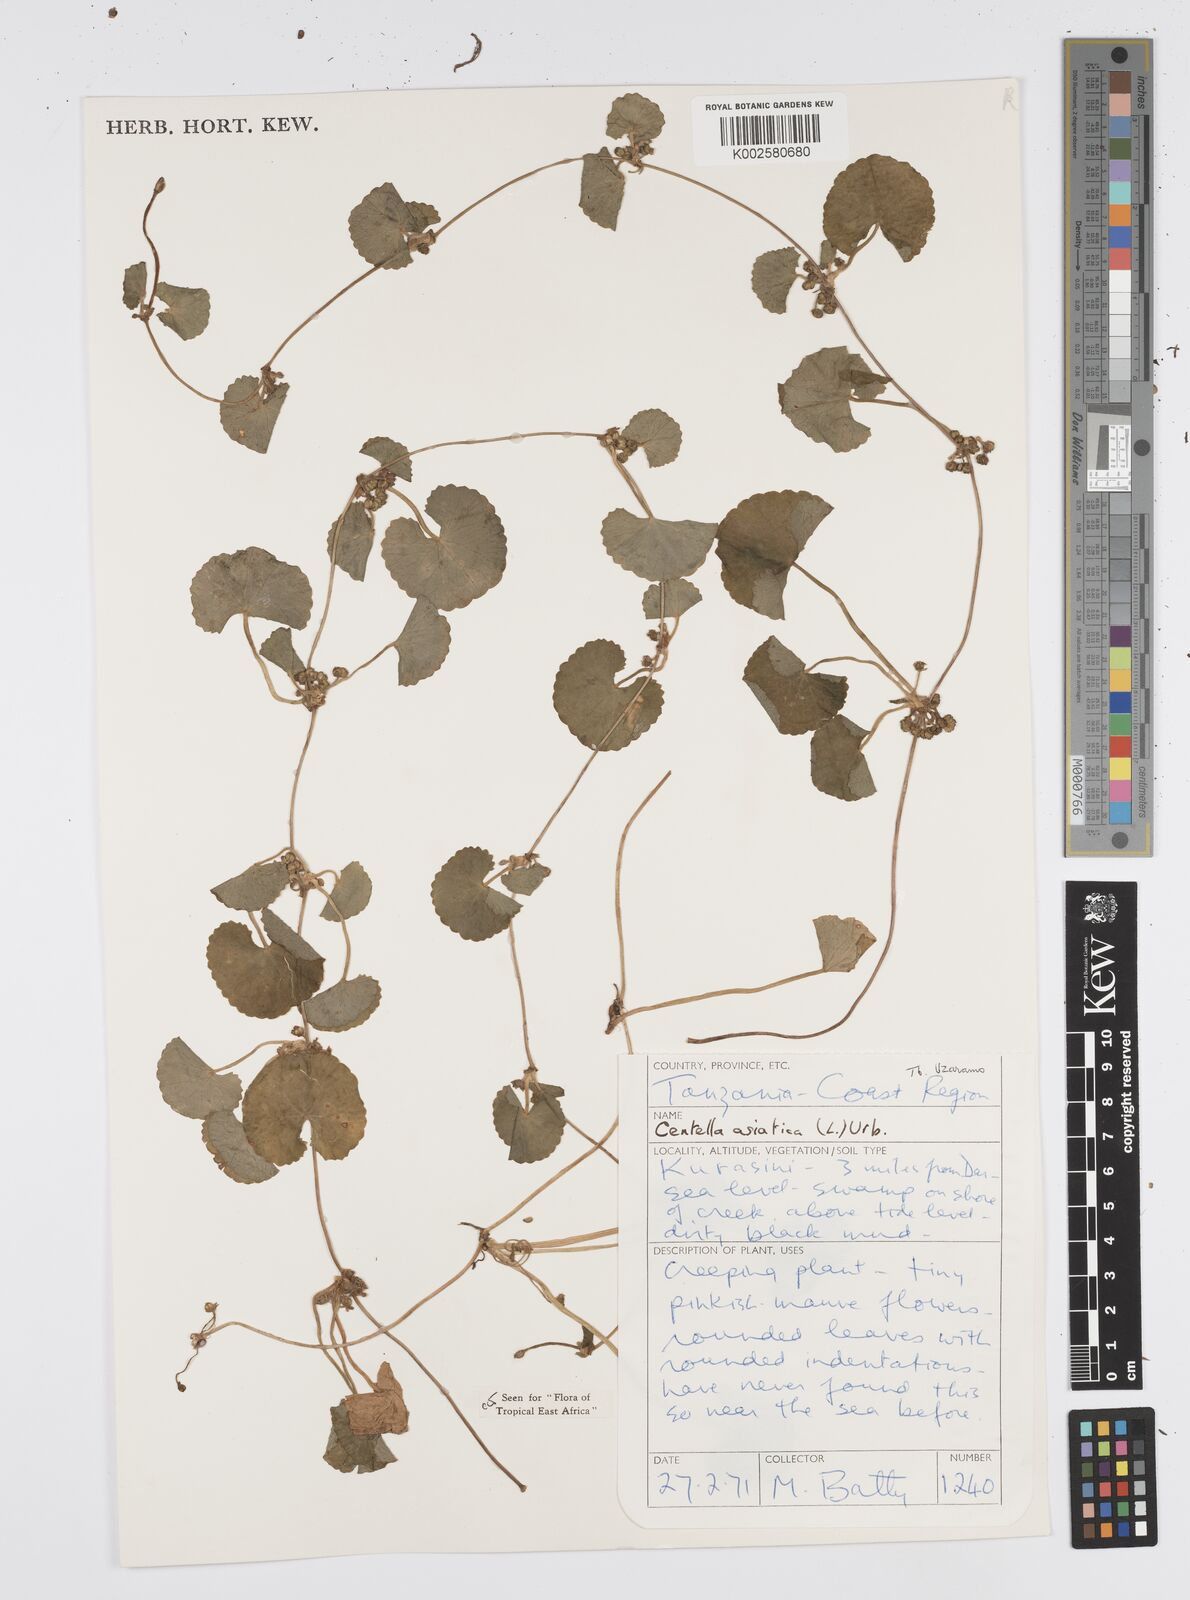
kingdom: Plantae
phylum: Tracheophyta
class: Magnoliopsida
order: Apiales
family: Apiaceae
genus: Centella
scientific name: Centella asiatica
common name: Spadeleaf
